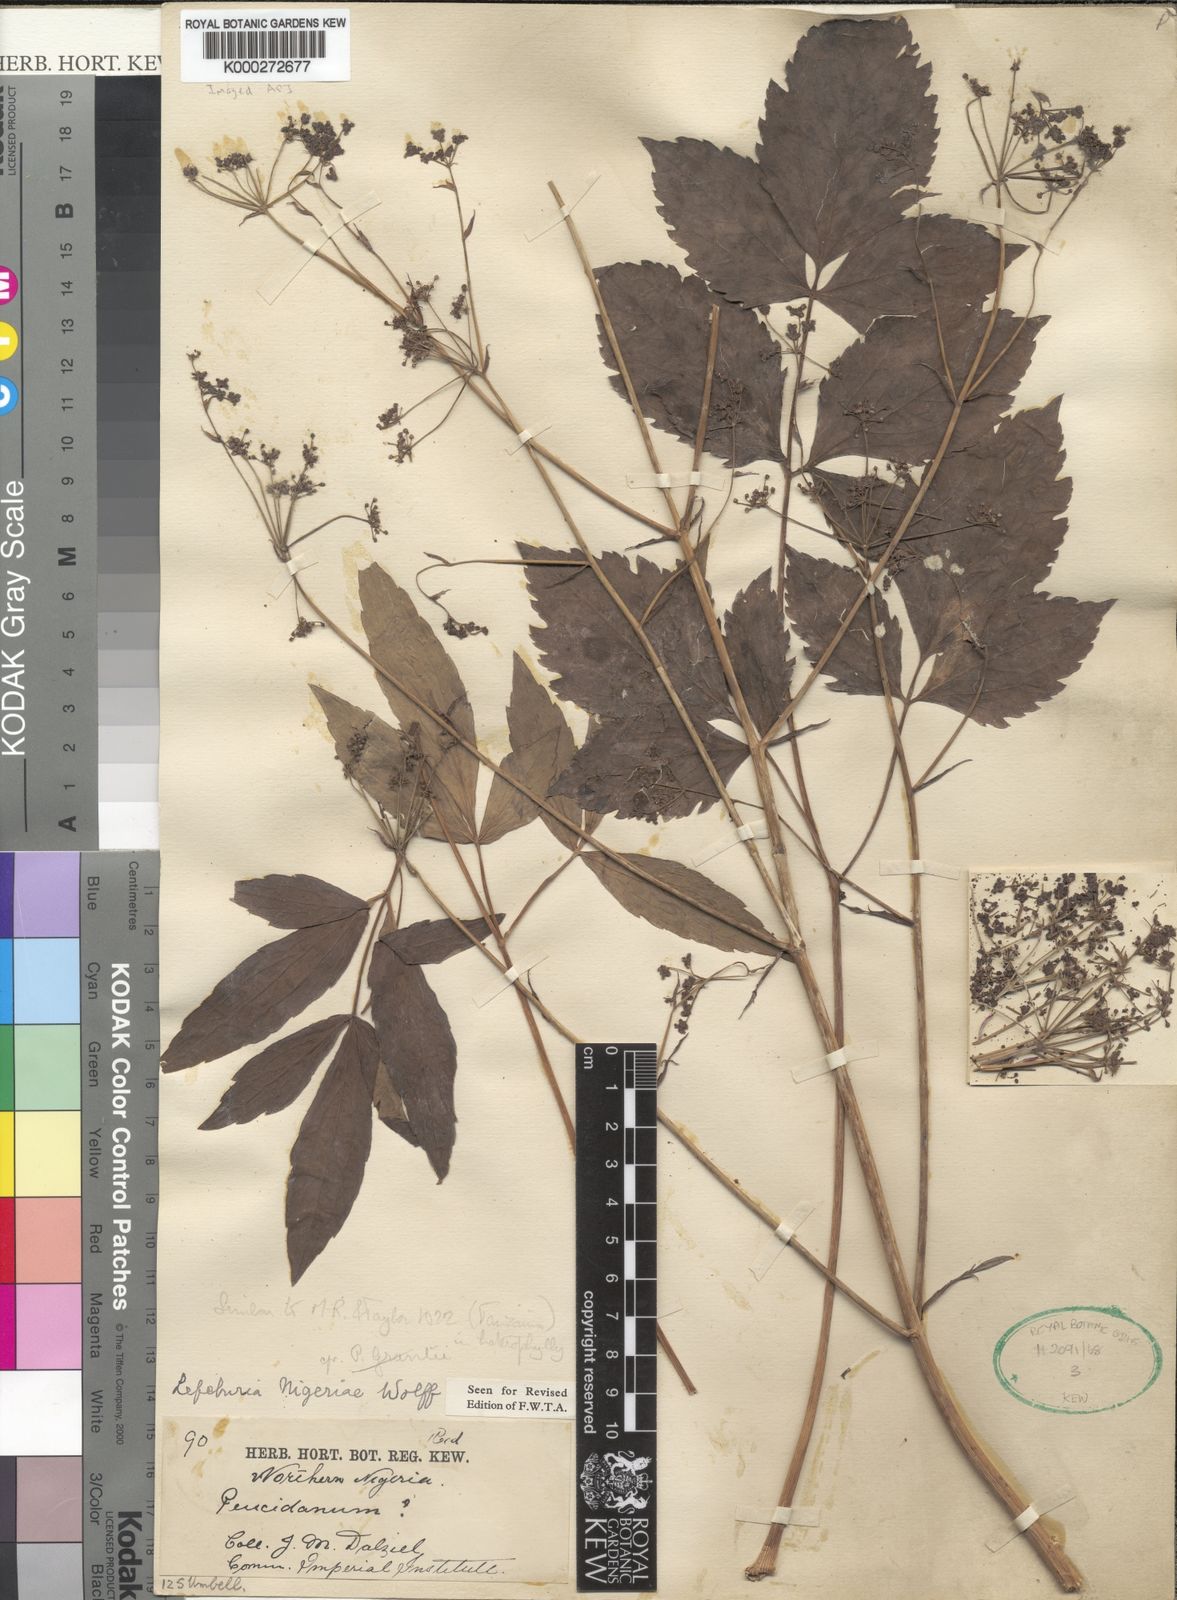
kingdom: Plantae
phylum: Tracheophyta
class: Magnoliopsida
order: Apiales
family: Apiaceae
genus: Lefebvrea
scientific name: Lefebvrea grantii
